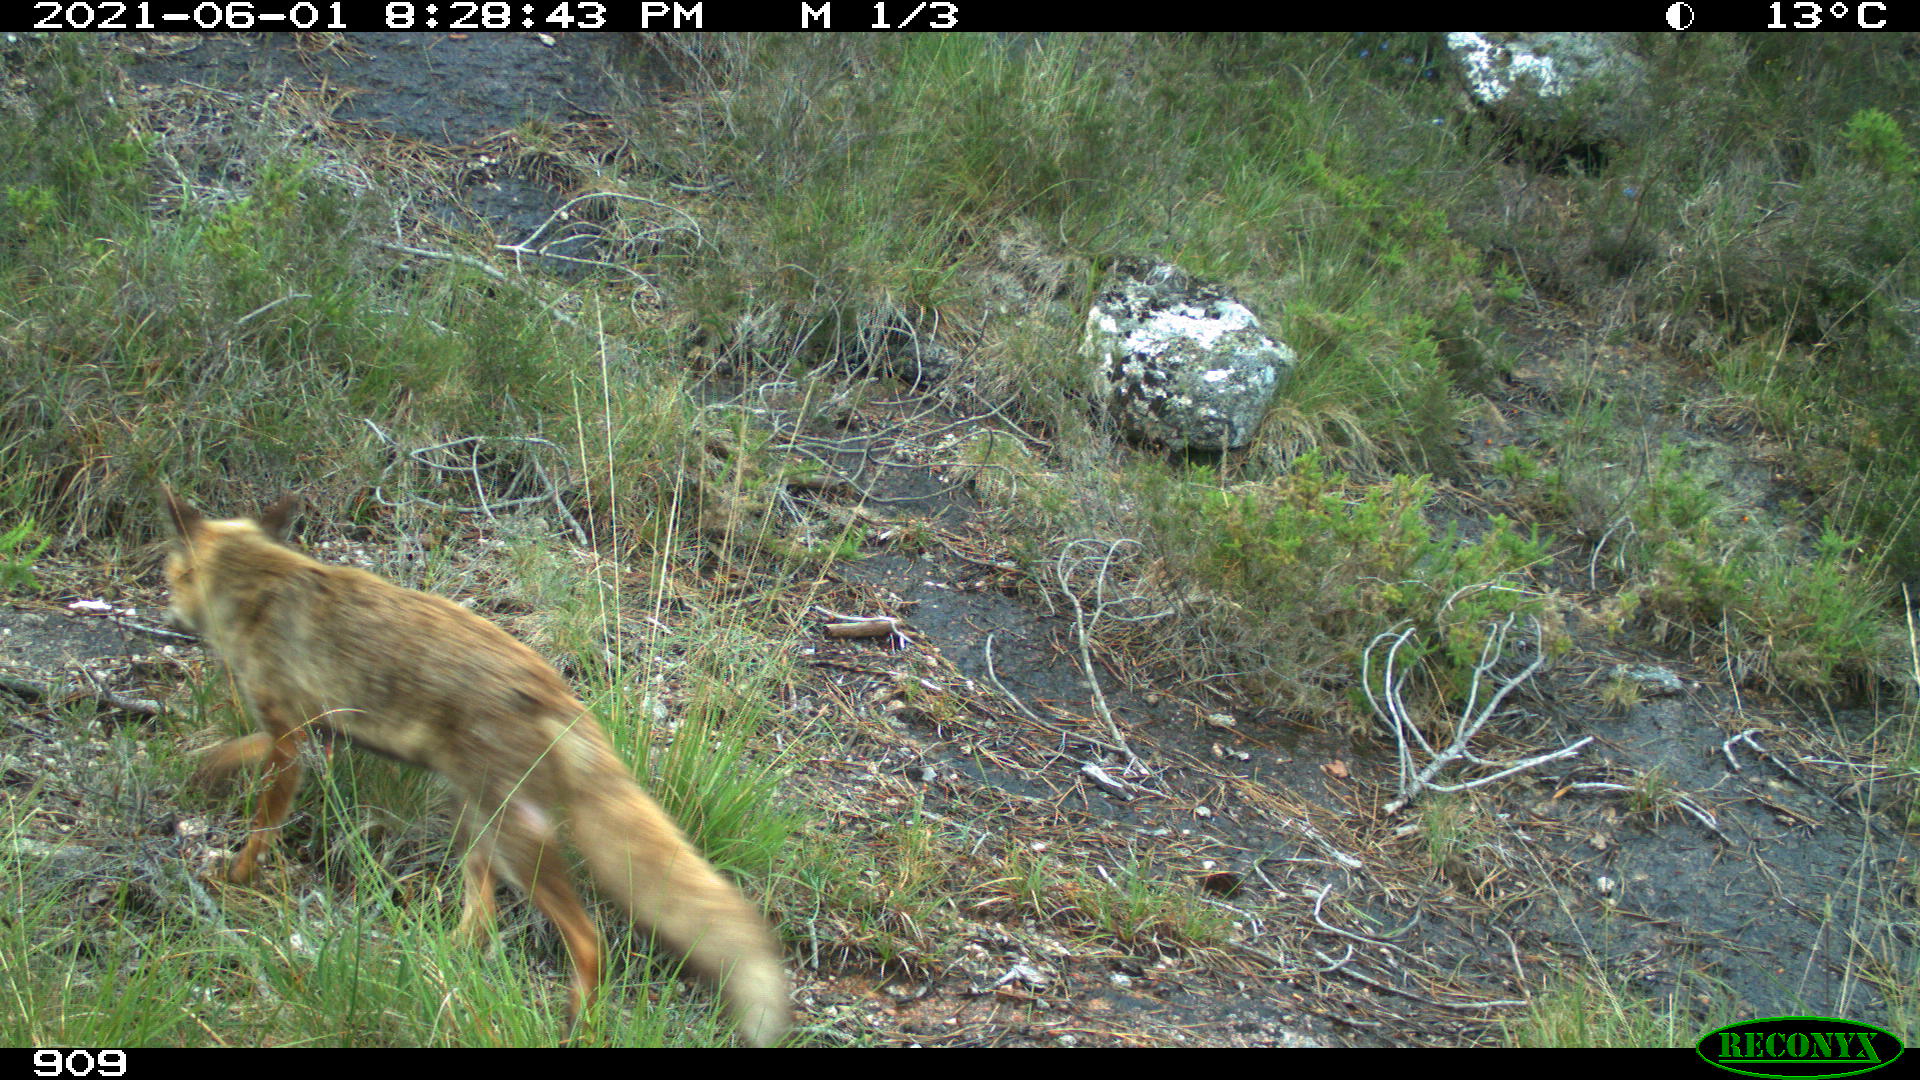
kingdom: Animalia
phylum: Chordata
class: Mammalia
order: Carnivora
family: Canidae
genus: Vulpes
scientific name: Vulpes vulpes
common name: Red fox
